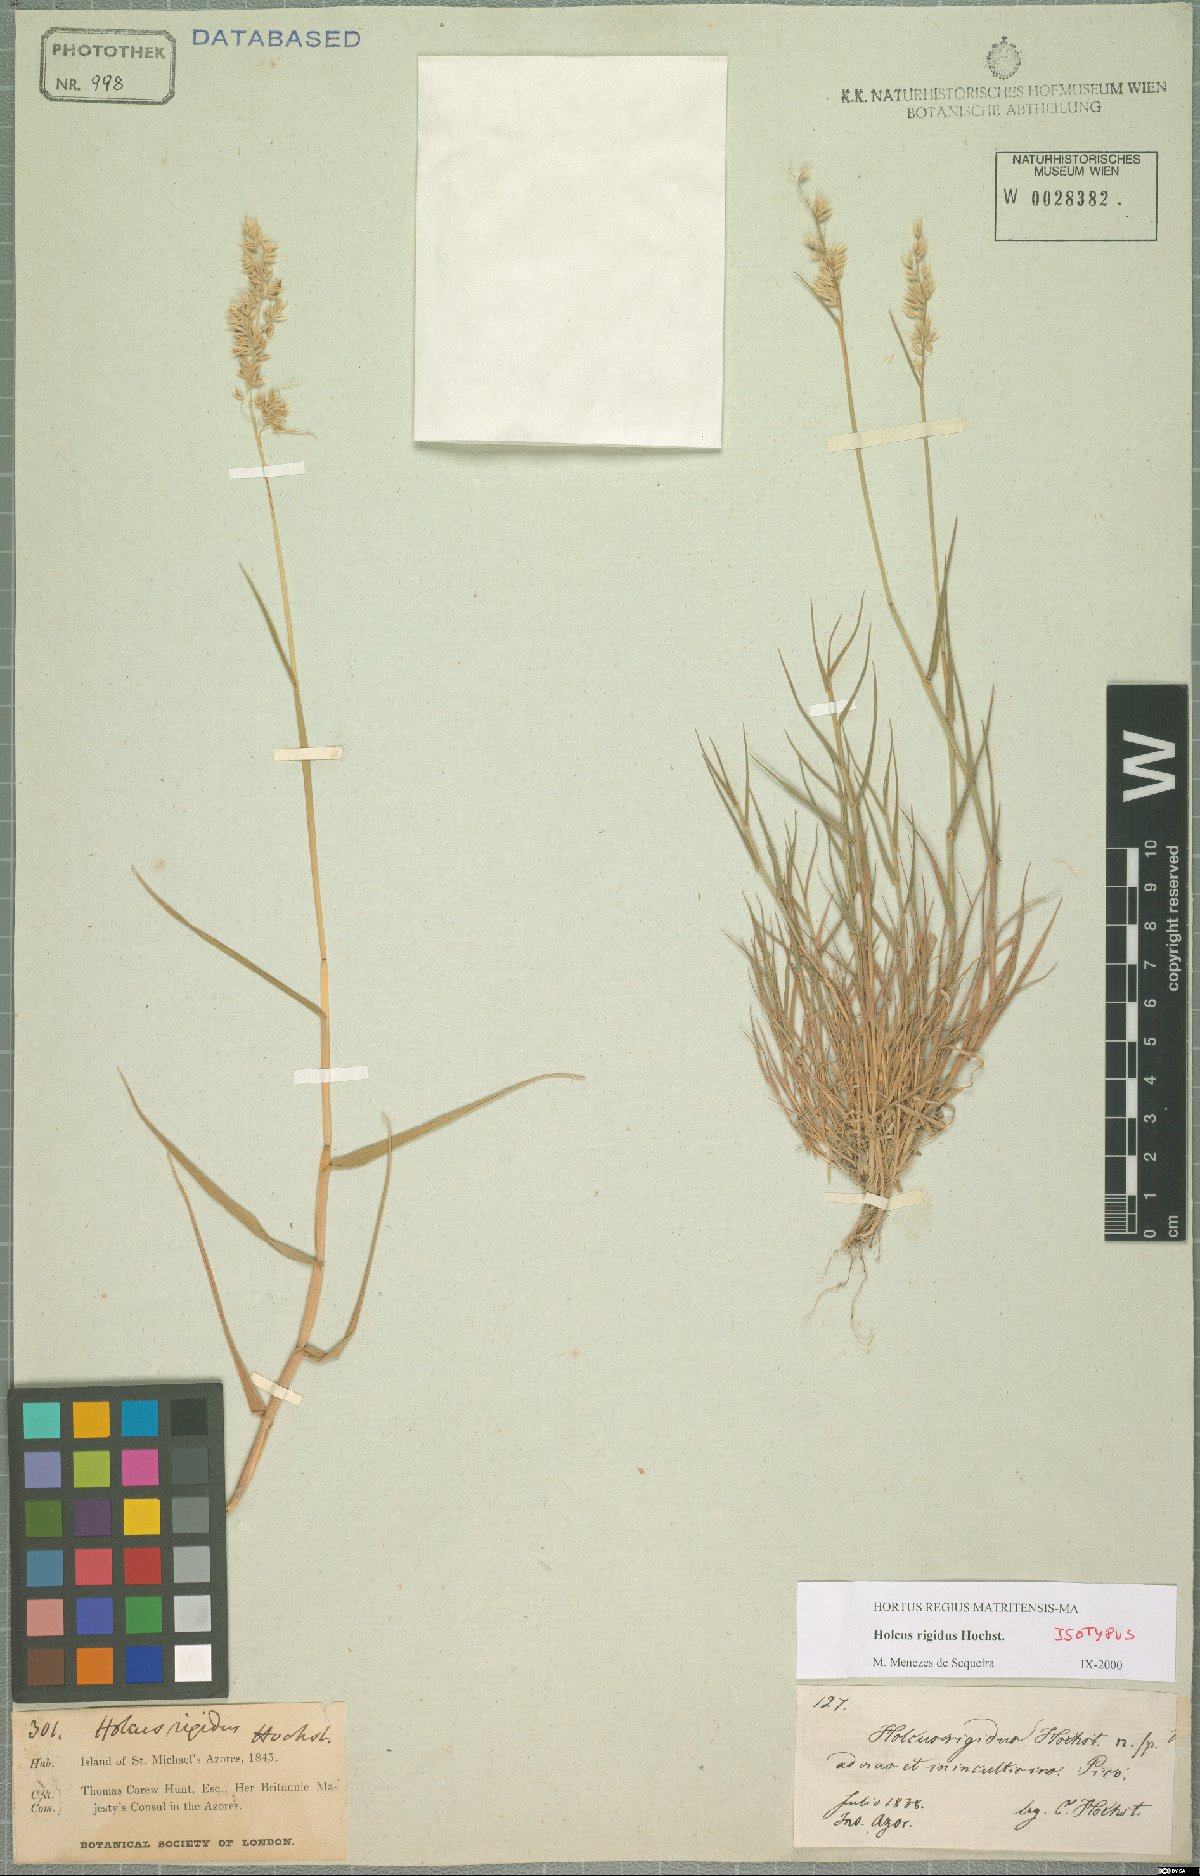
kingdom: Plantae
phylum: Tracheophyta
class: Liliopsida
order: Poales
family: Poaceae
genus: Holcus
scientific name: Holcus rigidus
